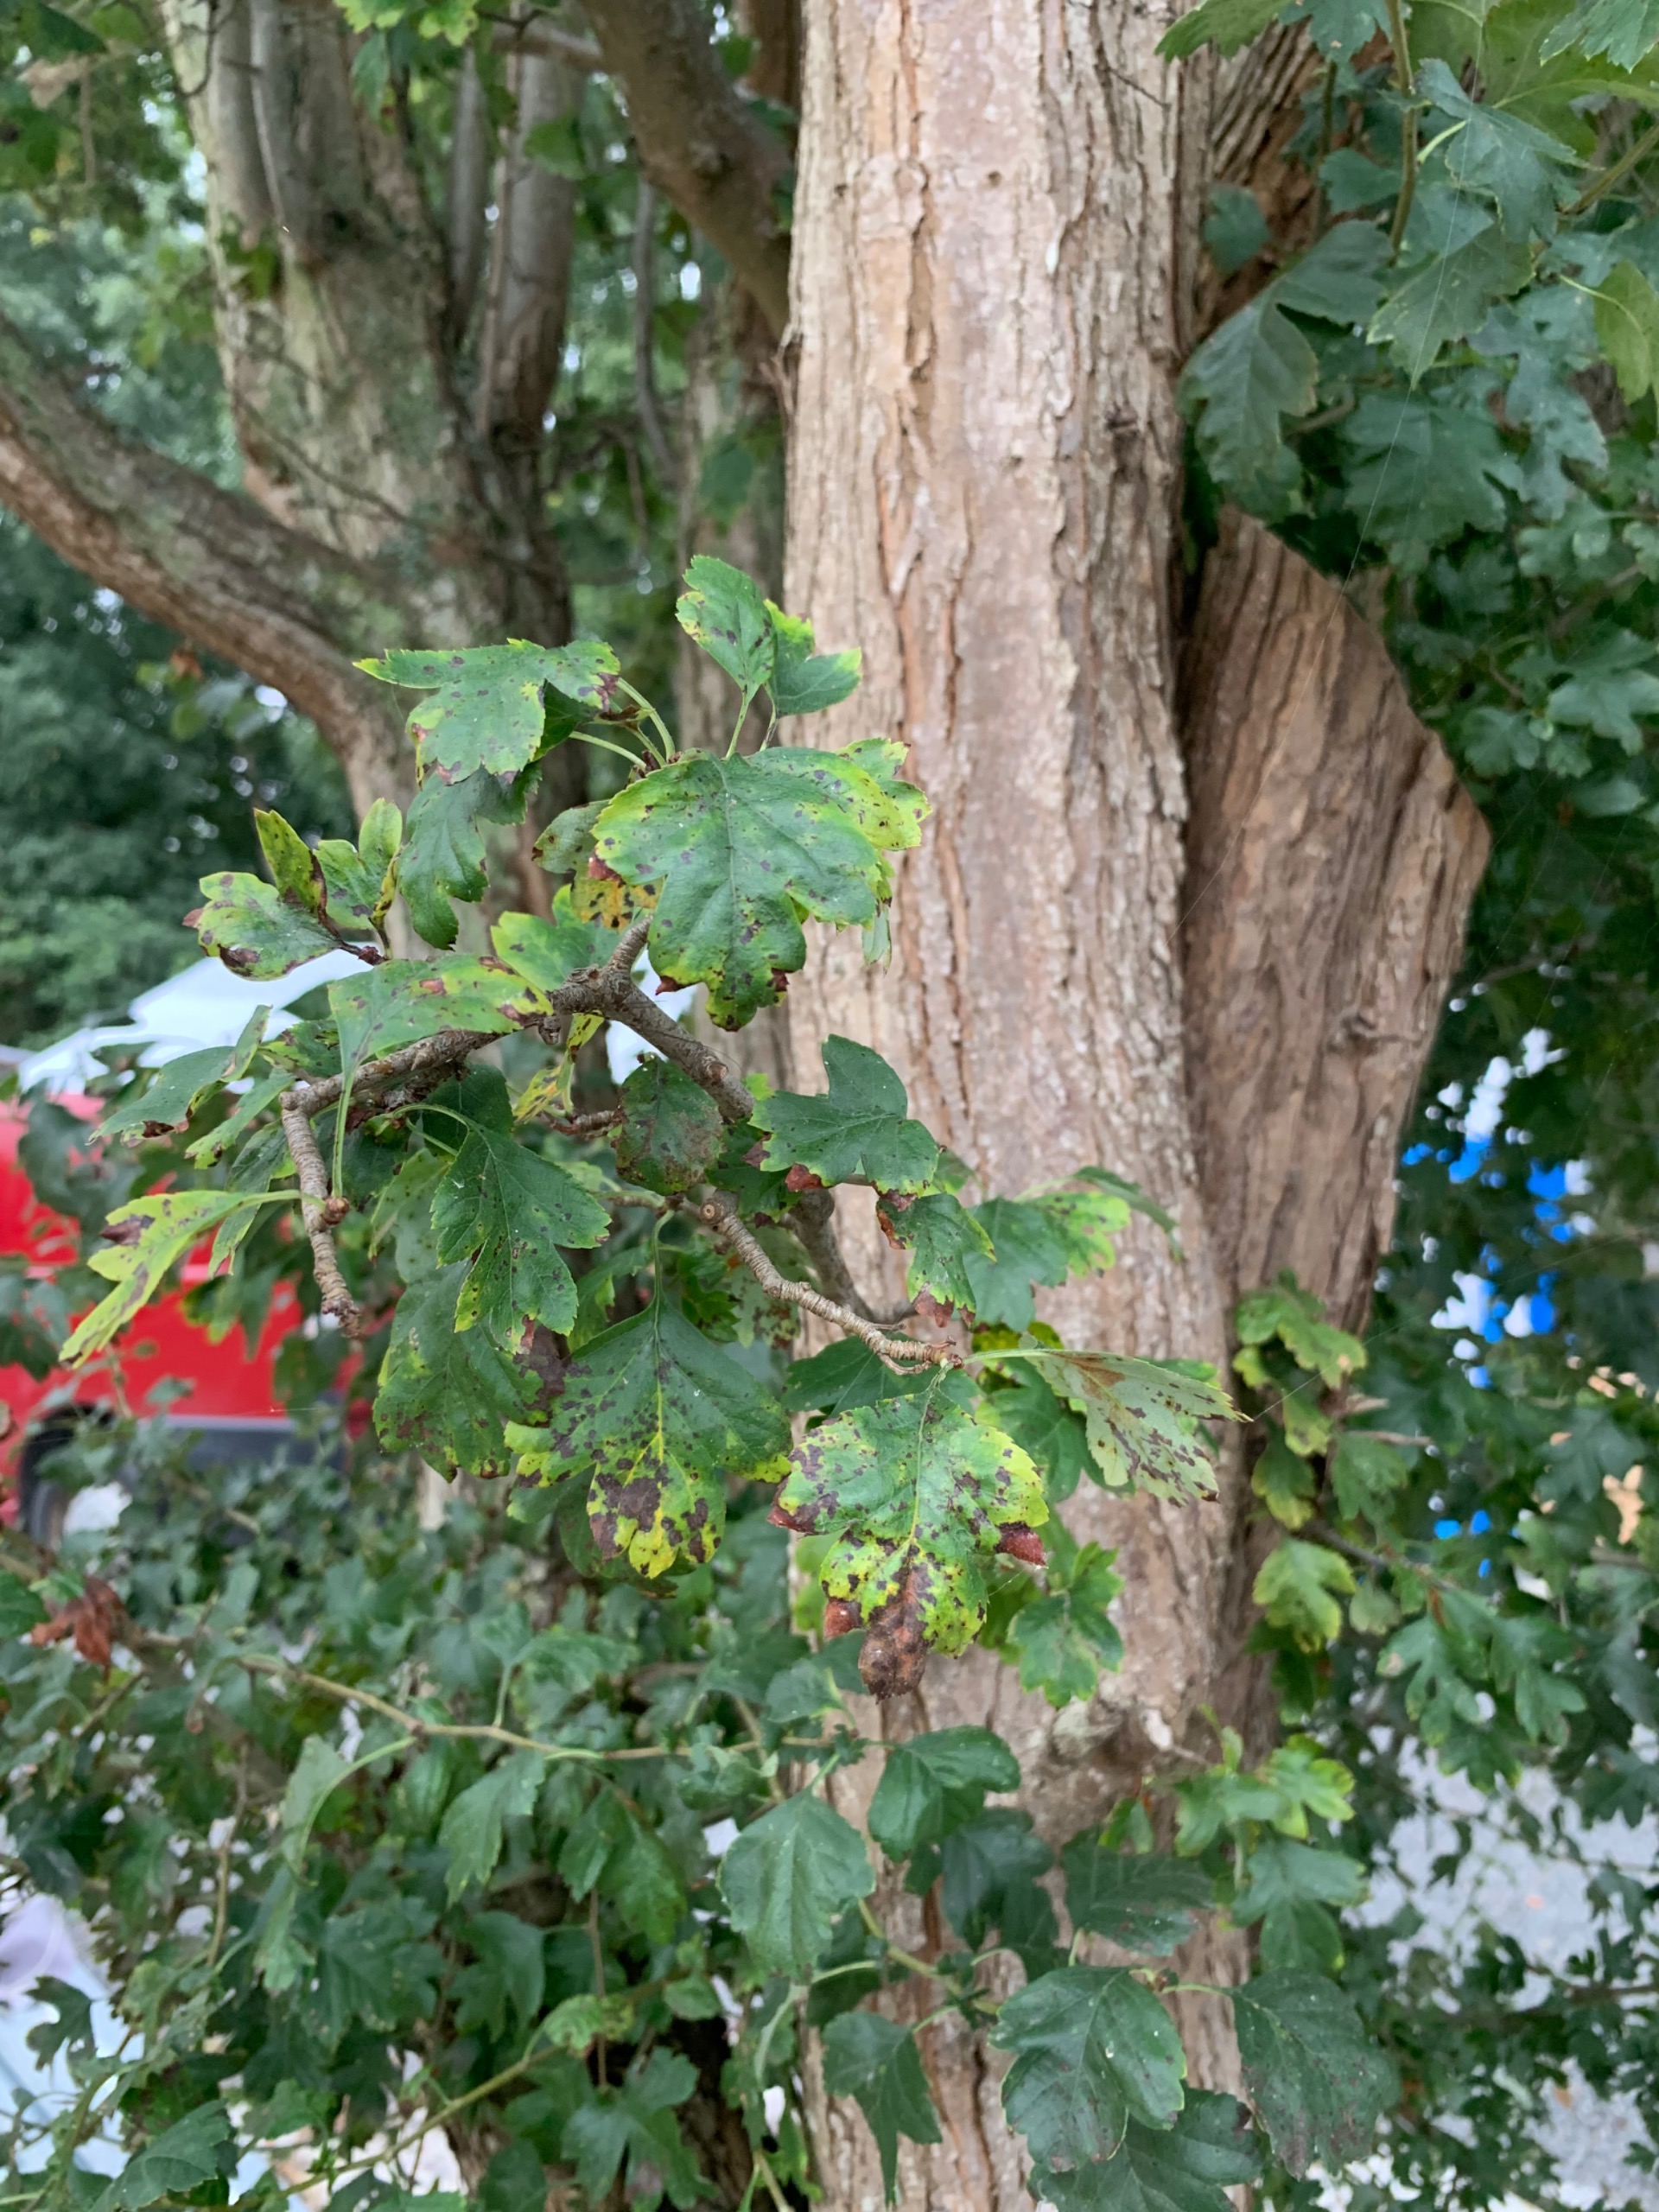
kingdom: Plantae
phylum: Tracheophyta
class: Magnoliopsida
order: Rosales
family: Rosaceae
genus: Crataegus
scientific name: Crataegus
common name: Hvidtjørnslægten
